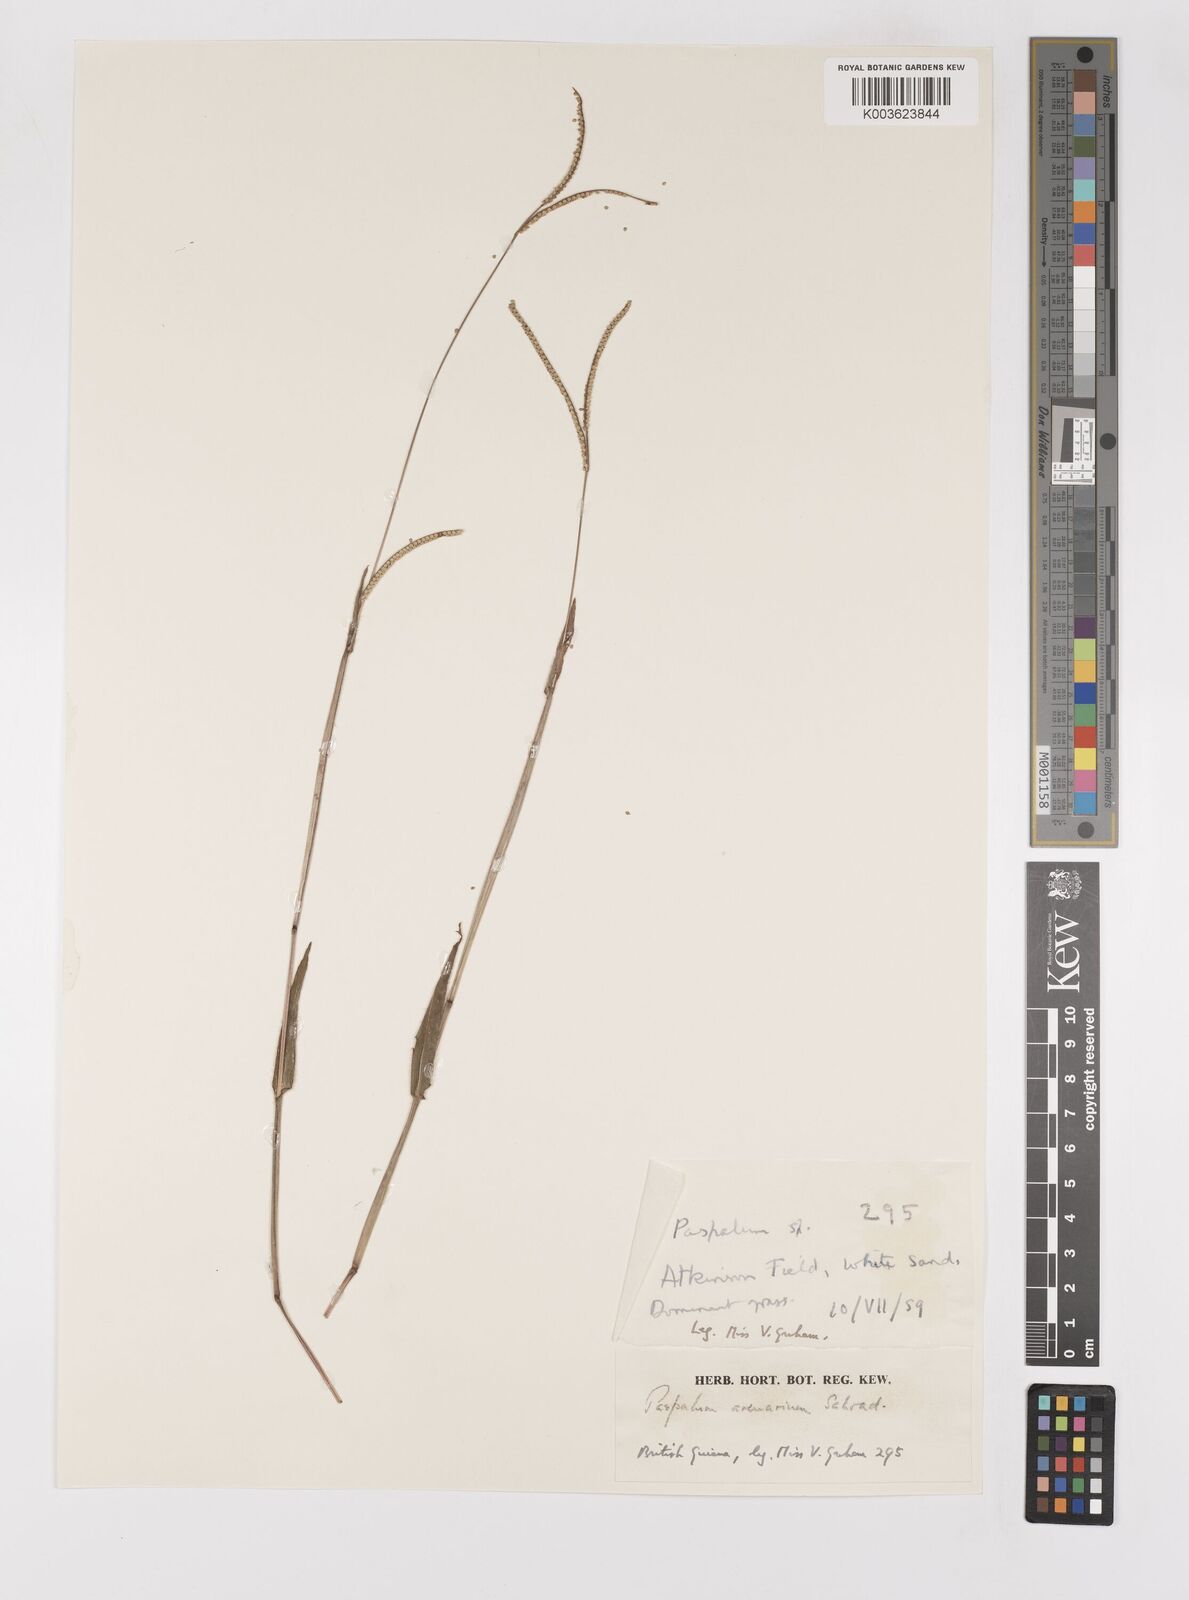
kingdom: Plantae
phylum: Tracheophyta
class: Liliopsida
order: Poales
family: Poaceae
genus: Paspalum
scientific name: Paspalum arenarium
